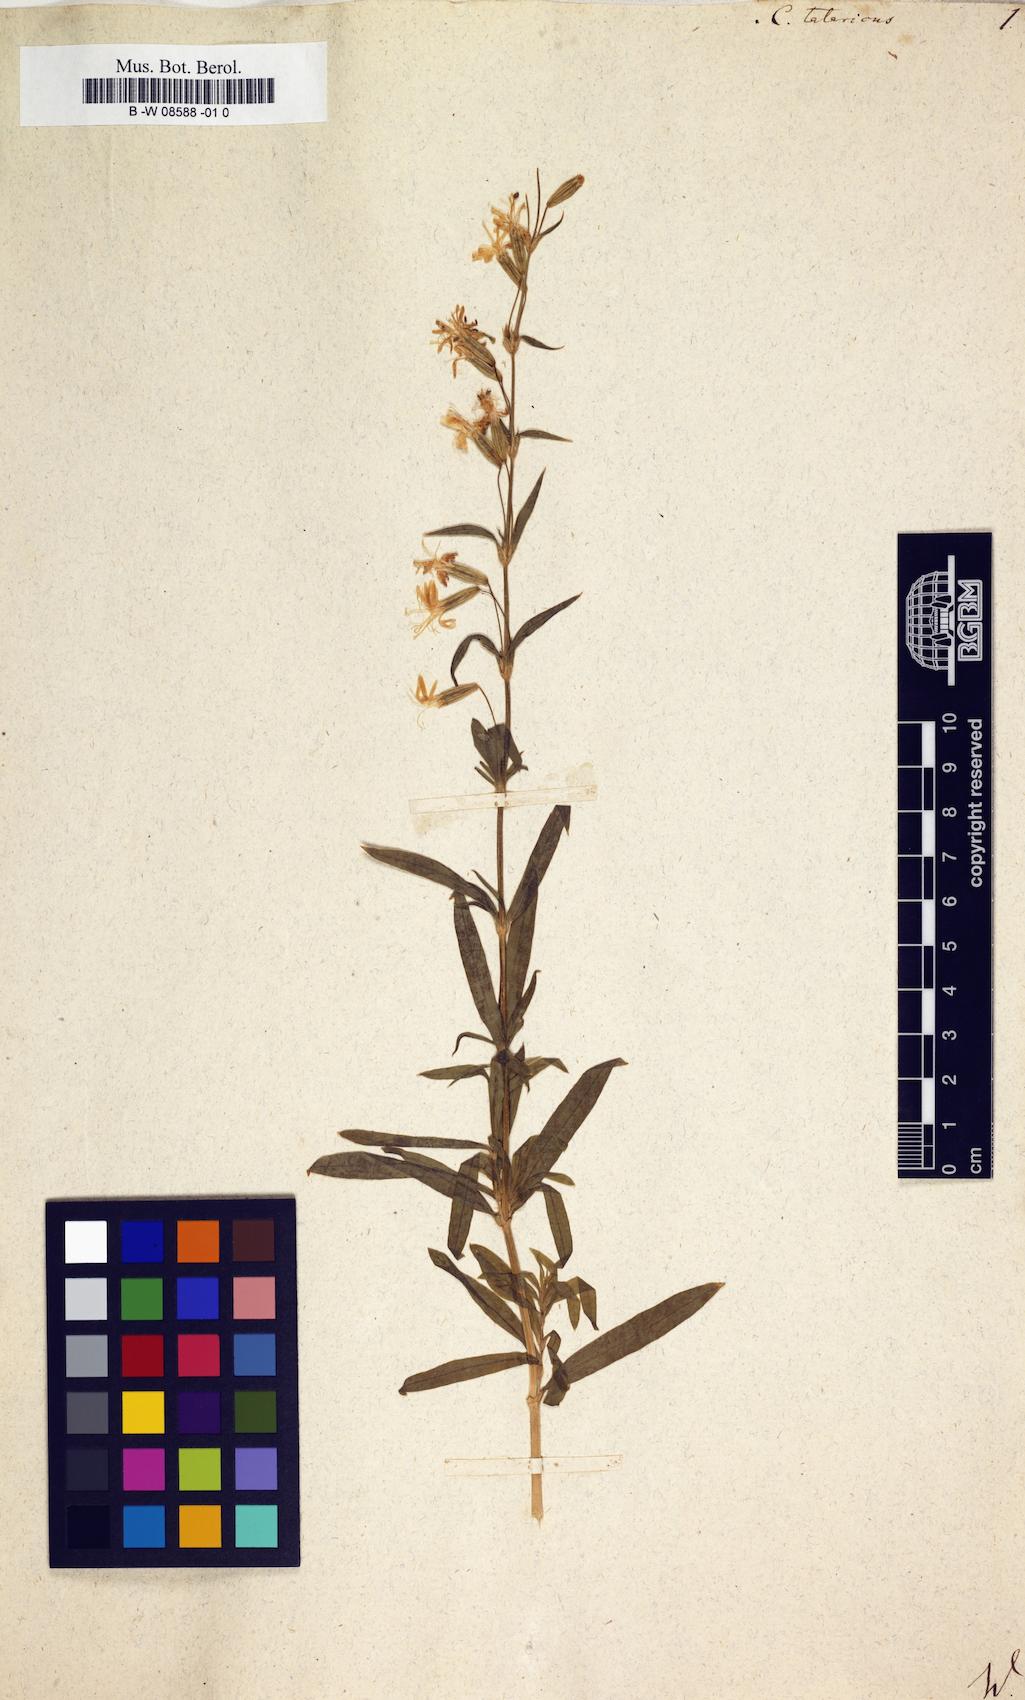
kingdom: Plantae
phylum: Tracheophyta
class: Magnoliopsida
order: Caryophyllales
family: Caryophyllaceae
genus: Silene
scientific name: Silene tatarica
